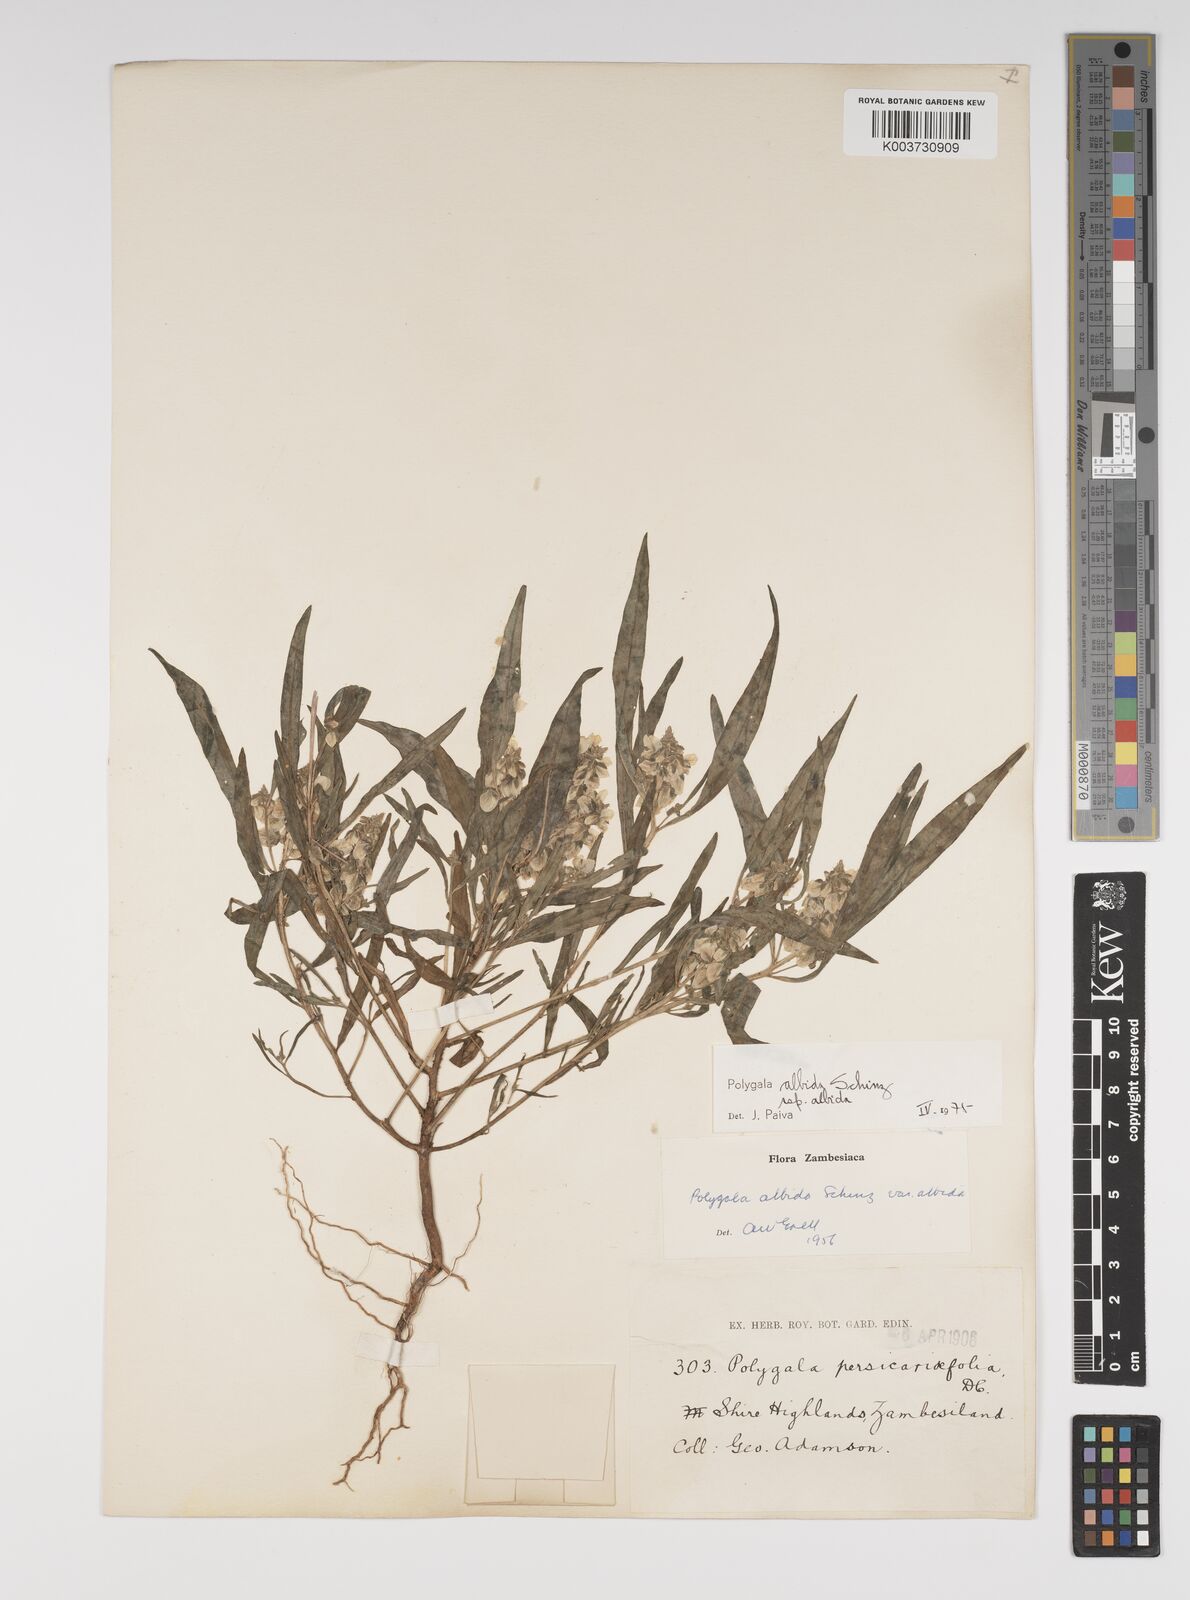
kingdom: Plantae
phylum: Tracheophyta
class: Magnoliopsida
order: Fabales
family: Polygalaceae
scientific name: Polygalaceae
